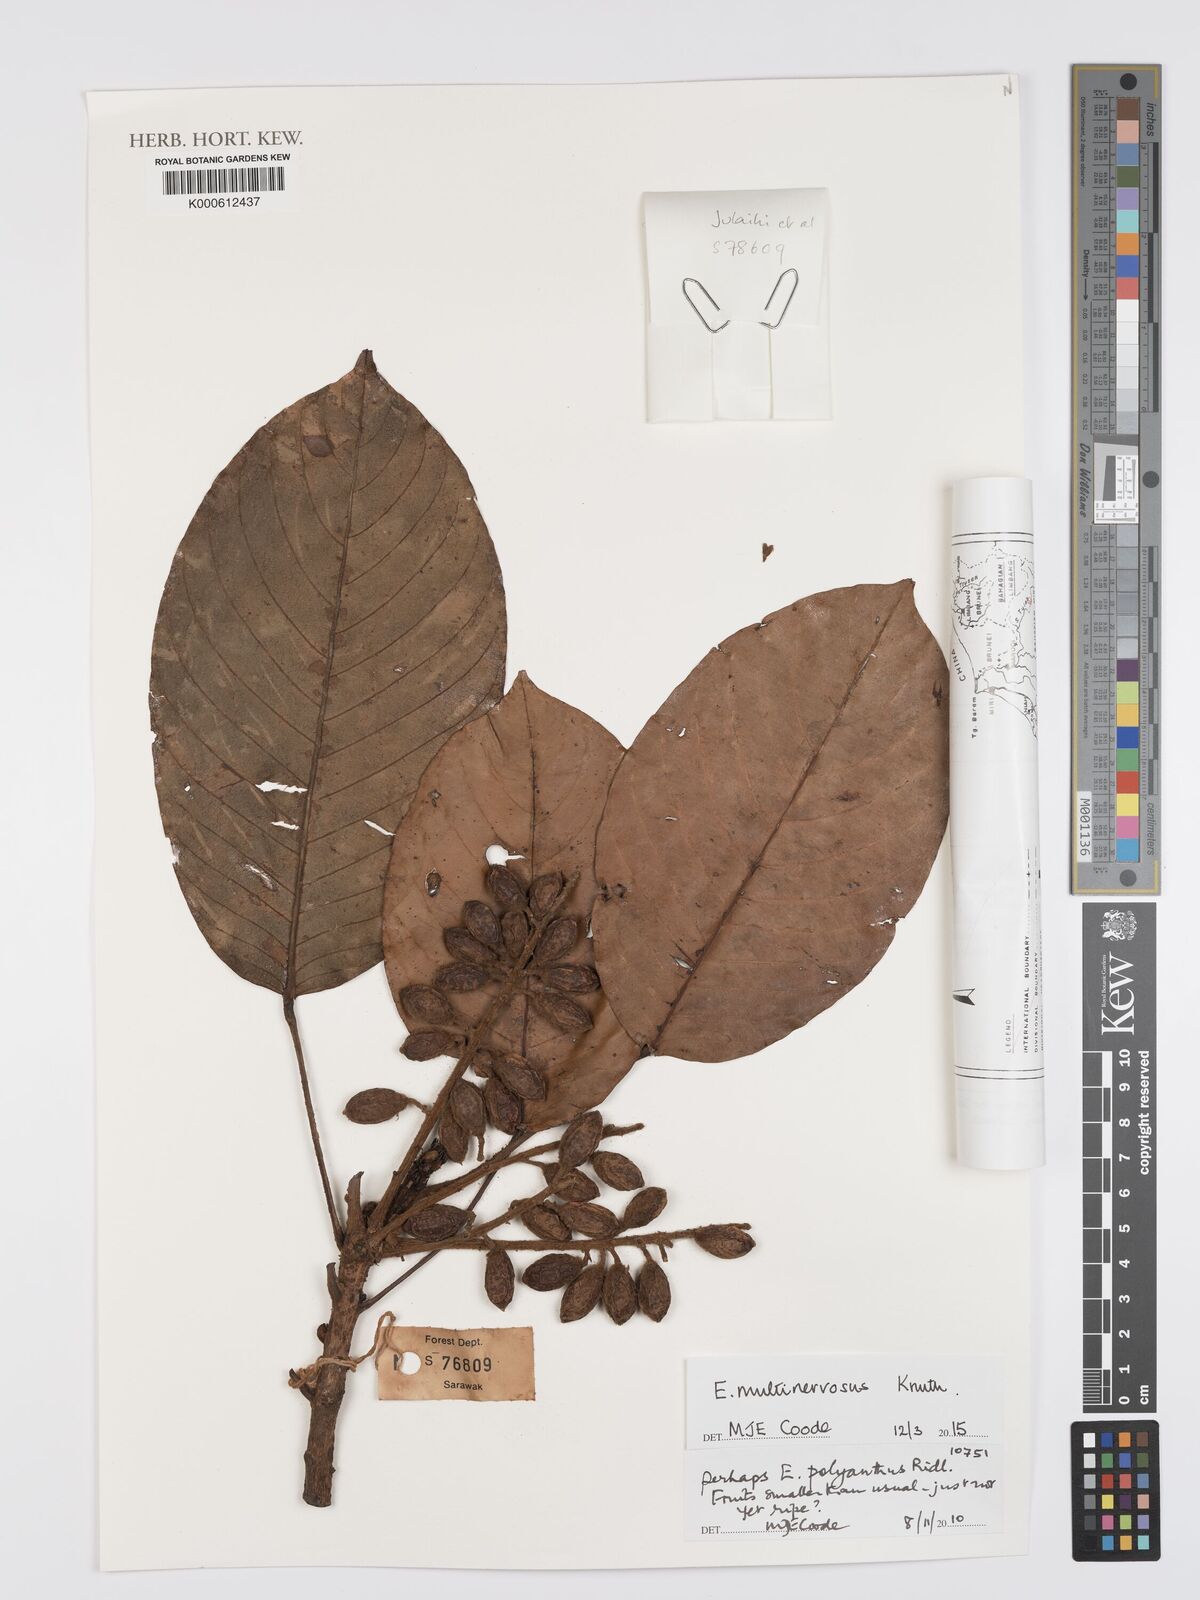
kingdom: Plantae
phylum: Tracheophyta
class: Magnoliopsida
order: Oxalidales
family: Elaeocarpaceae
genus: Elaeocarpus
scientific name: Elaeocarpus polyanthus
